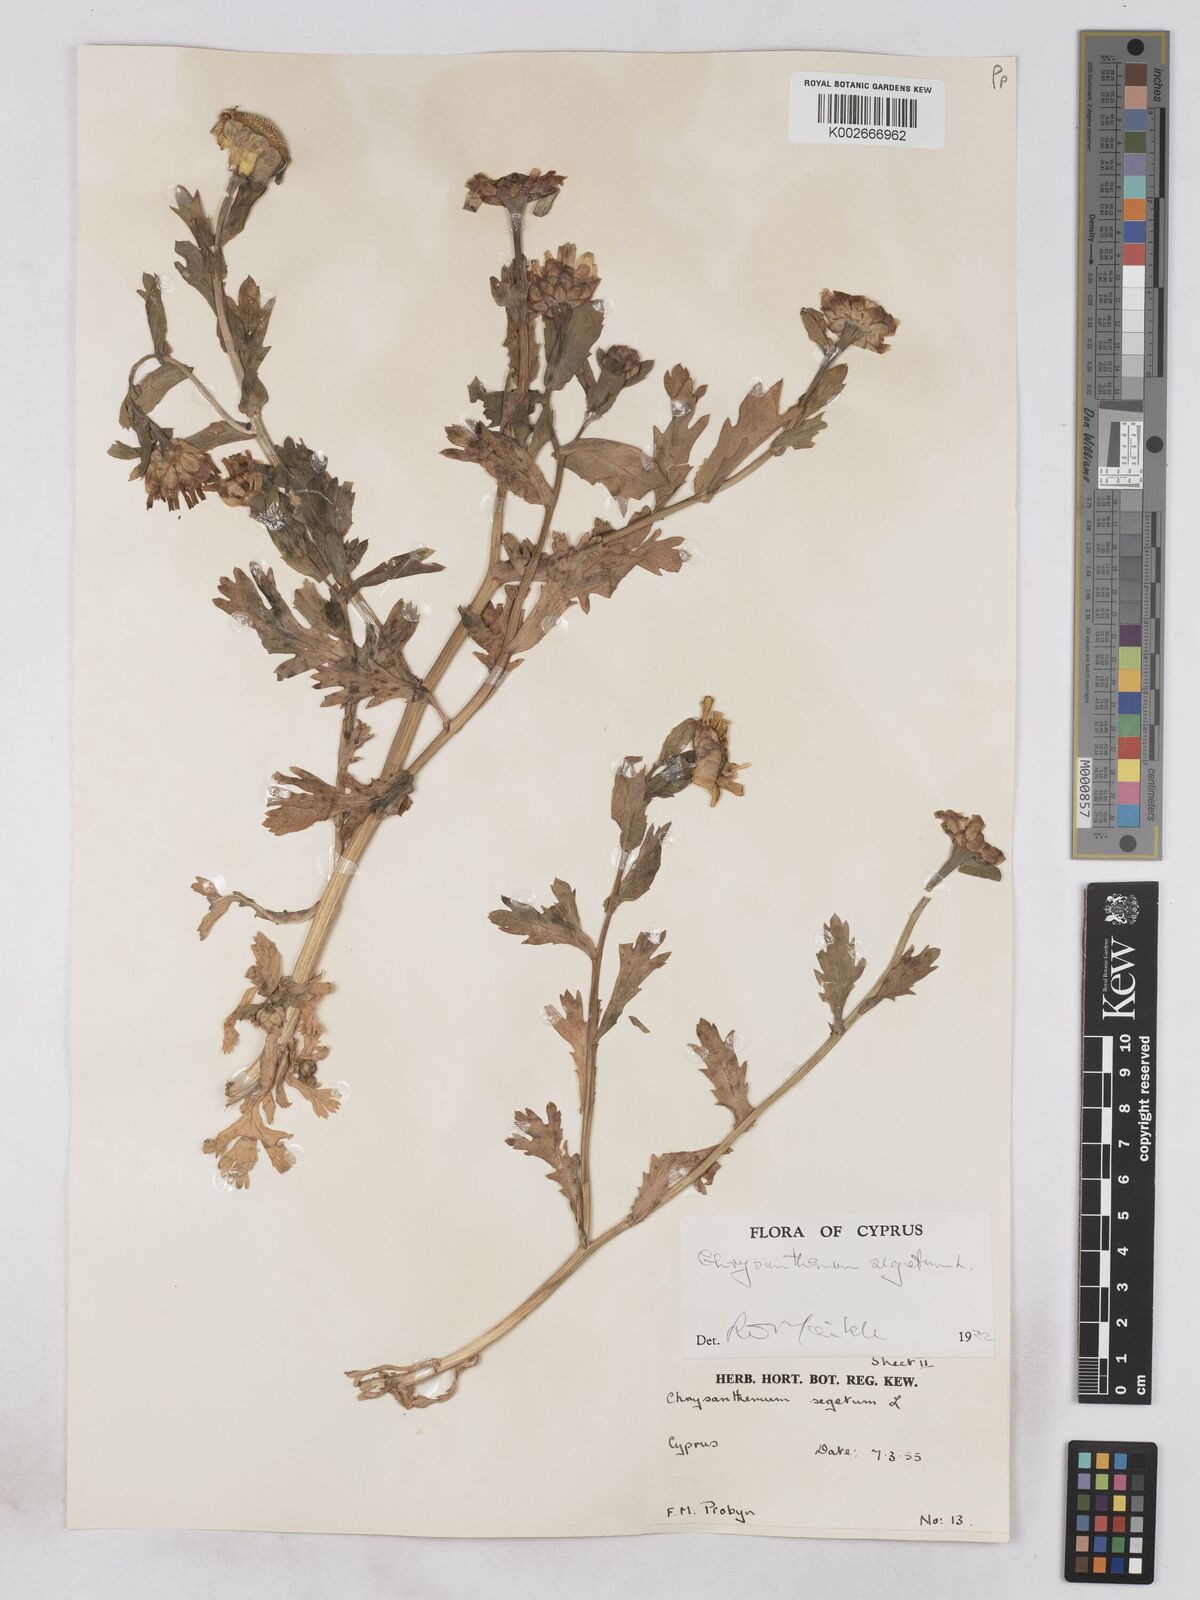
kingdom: Plantae
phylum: Tracheophyta
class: Magnoliopsida
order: Asterales
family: Asteraceae
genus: Glebionis
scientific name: Glebionis segetum
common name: Corndaisy
